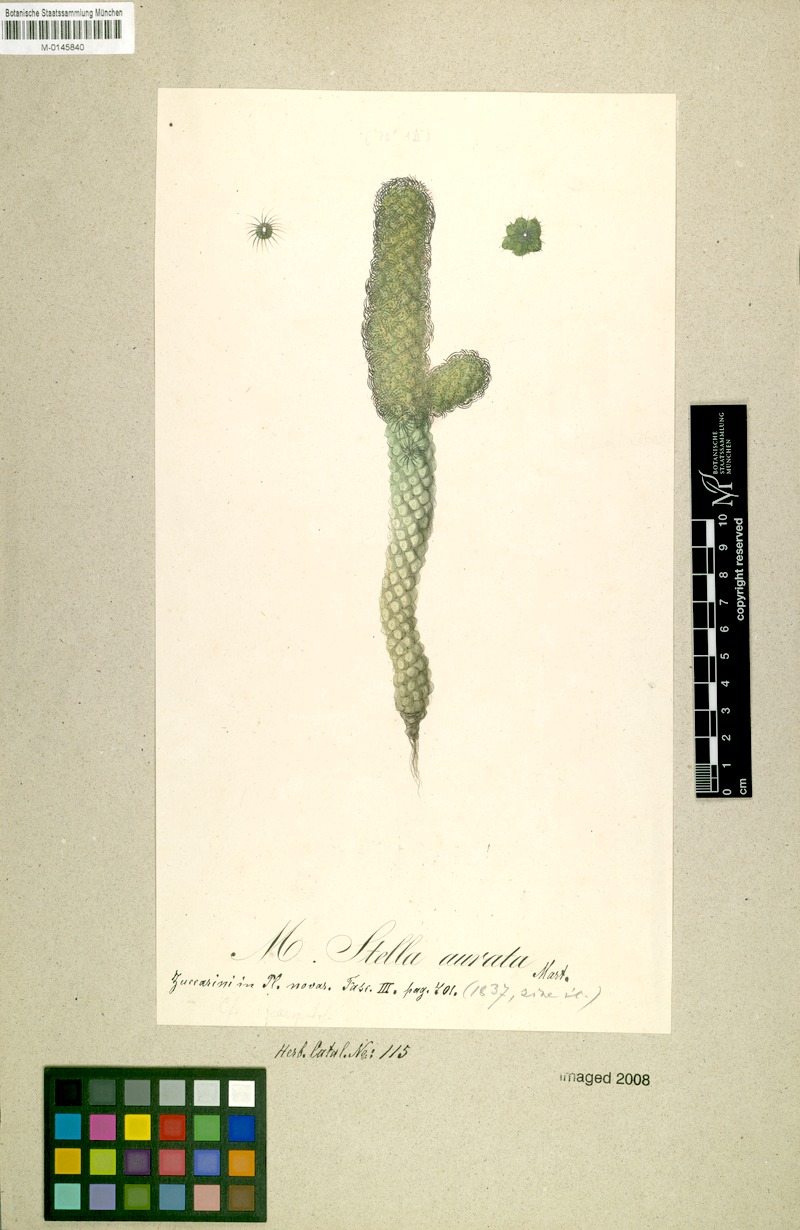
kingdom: Plantae
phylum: Tracheophyta
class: Magnoliopsida
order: Caryophyllales
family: Cactaceae
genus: Mammillaria
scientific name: Mammillaria elongata
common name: Golden star cactus
